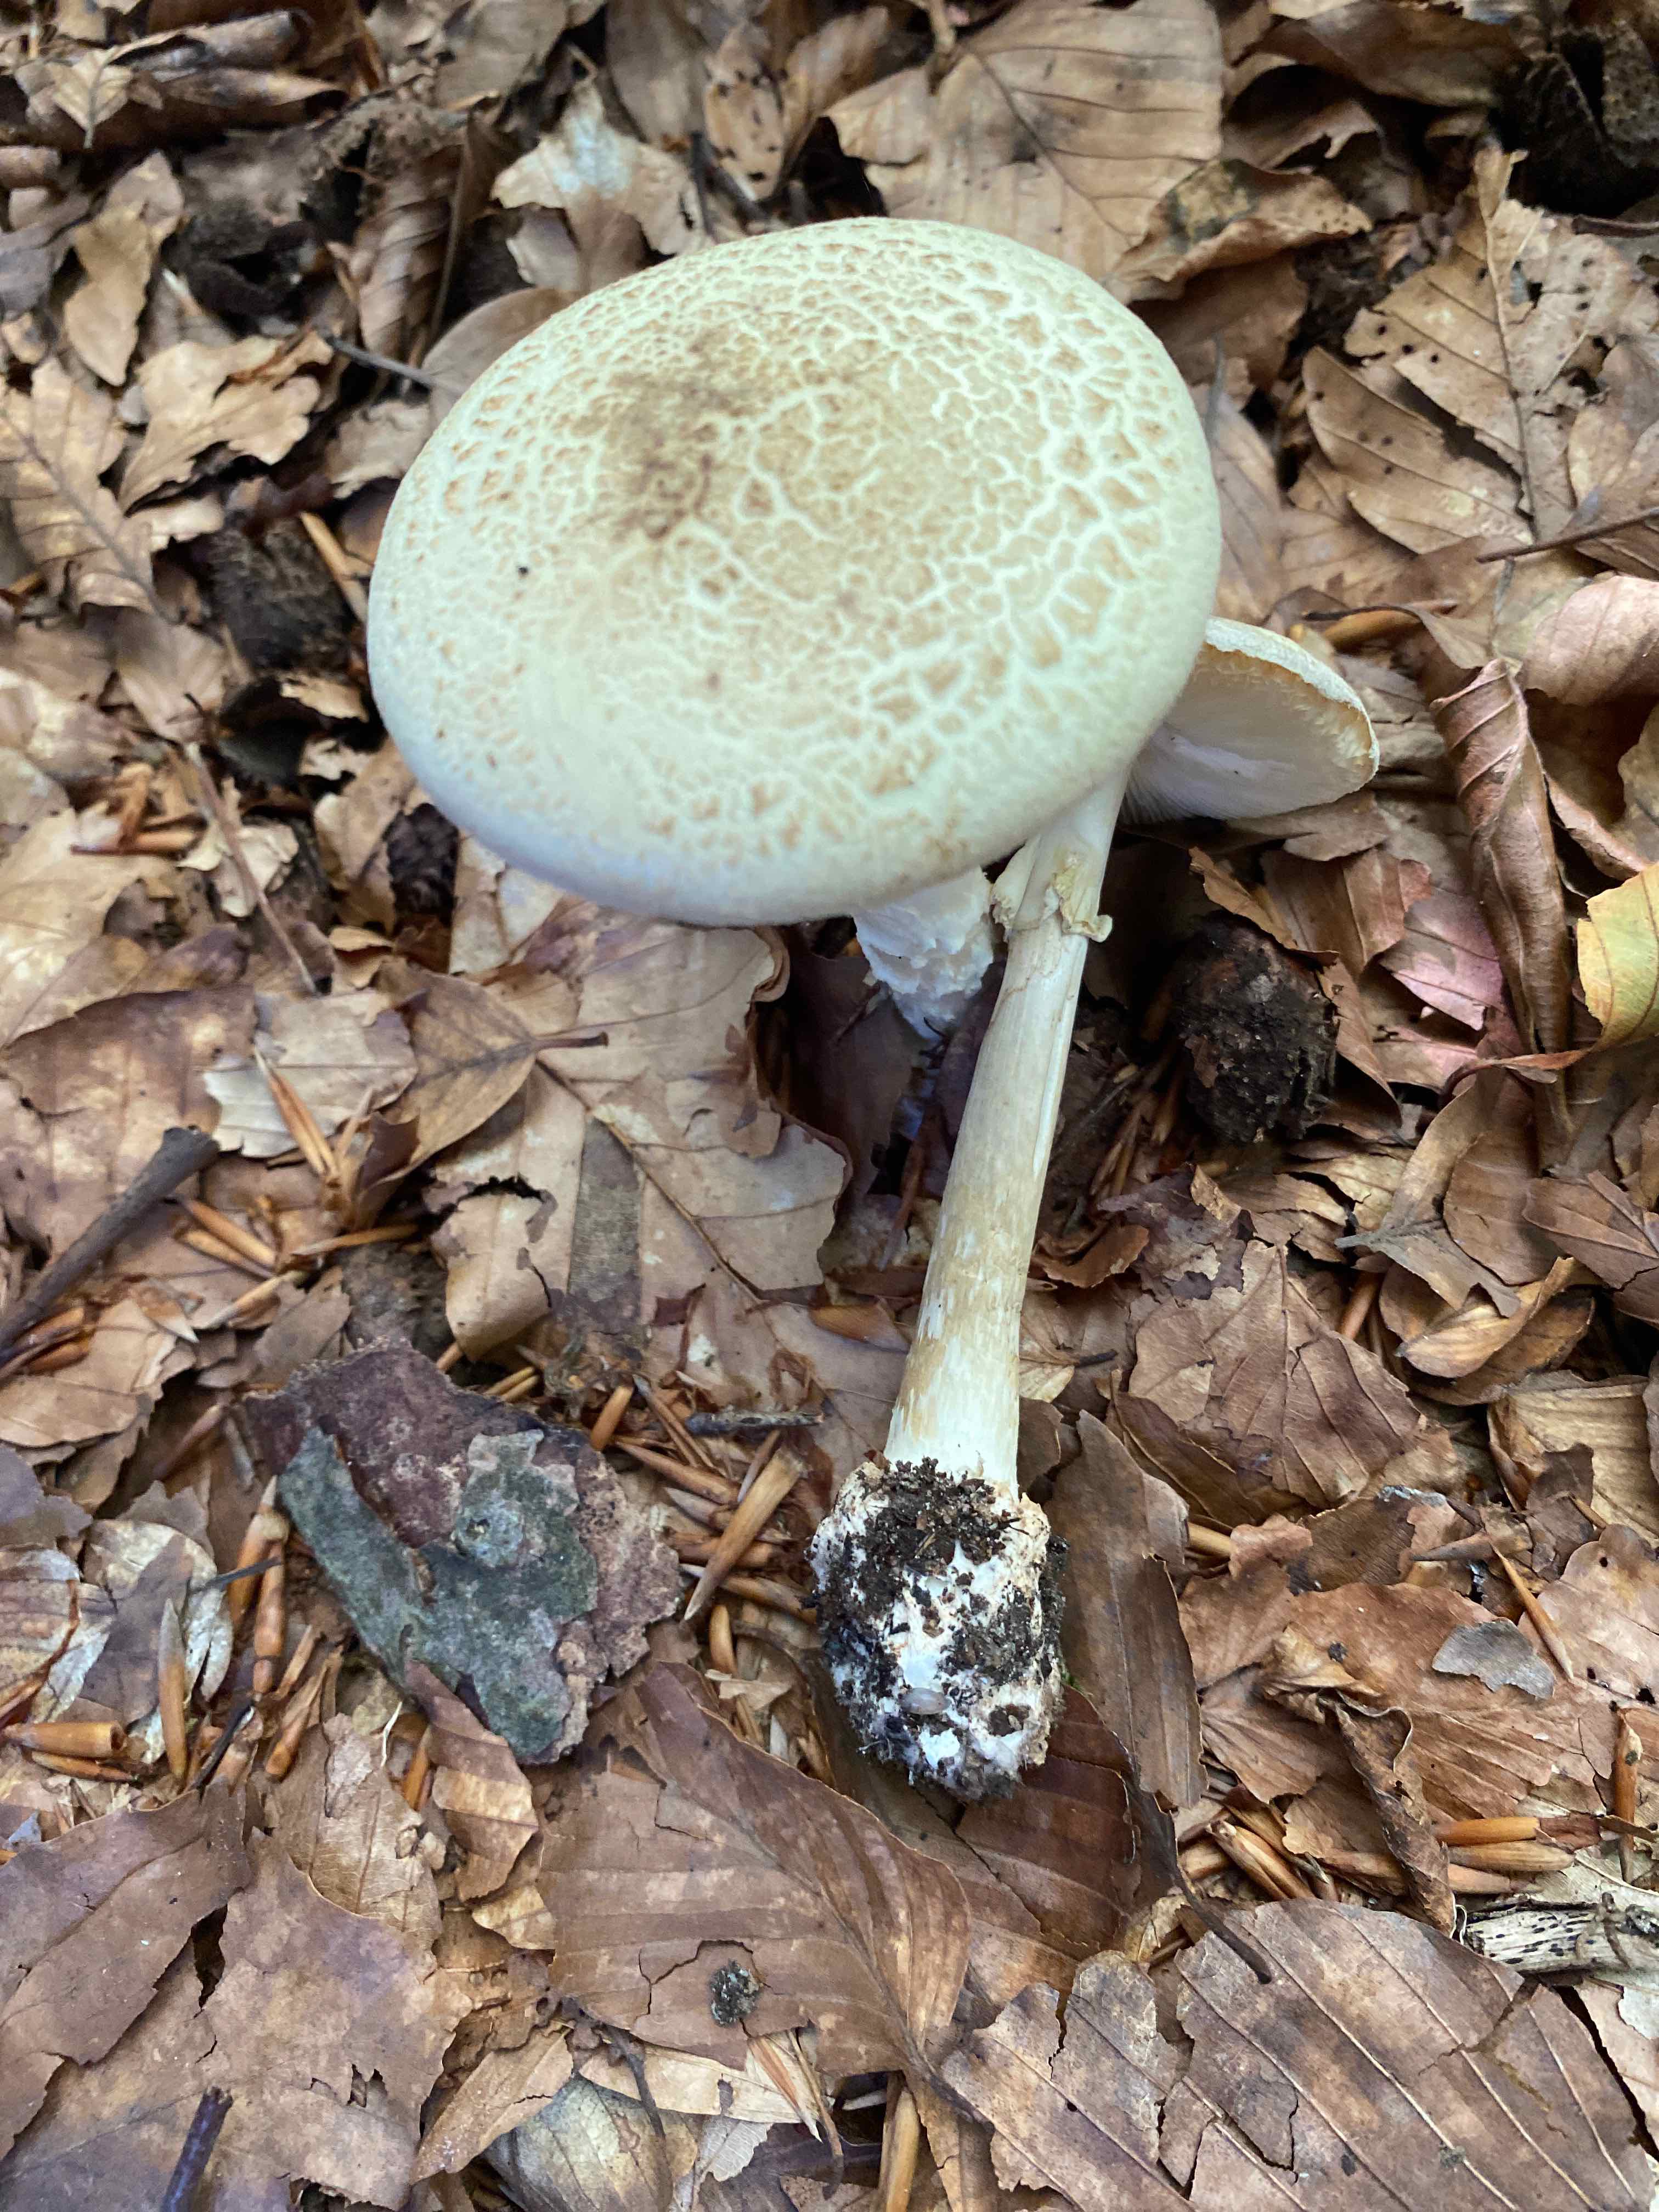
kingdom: Fungi
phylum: Basidiomycota
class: Agaricomycetes
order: Agaricales
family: Amanitaceae
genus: Amanita
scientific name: Amanita citrina
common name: kugleknoldet fluesvamp
